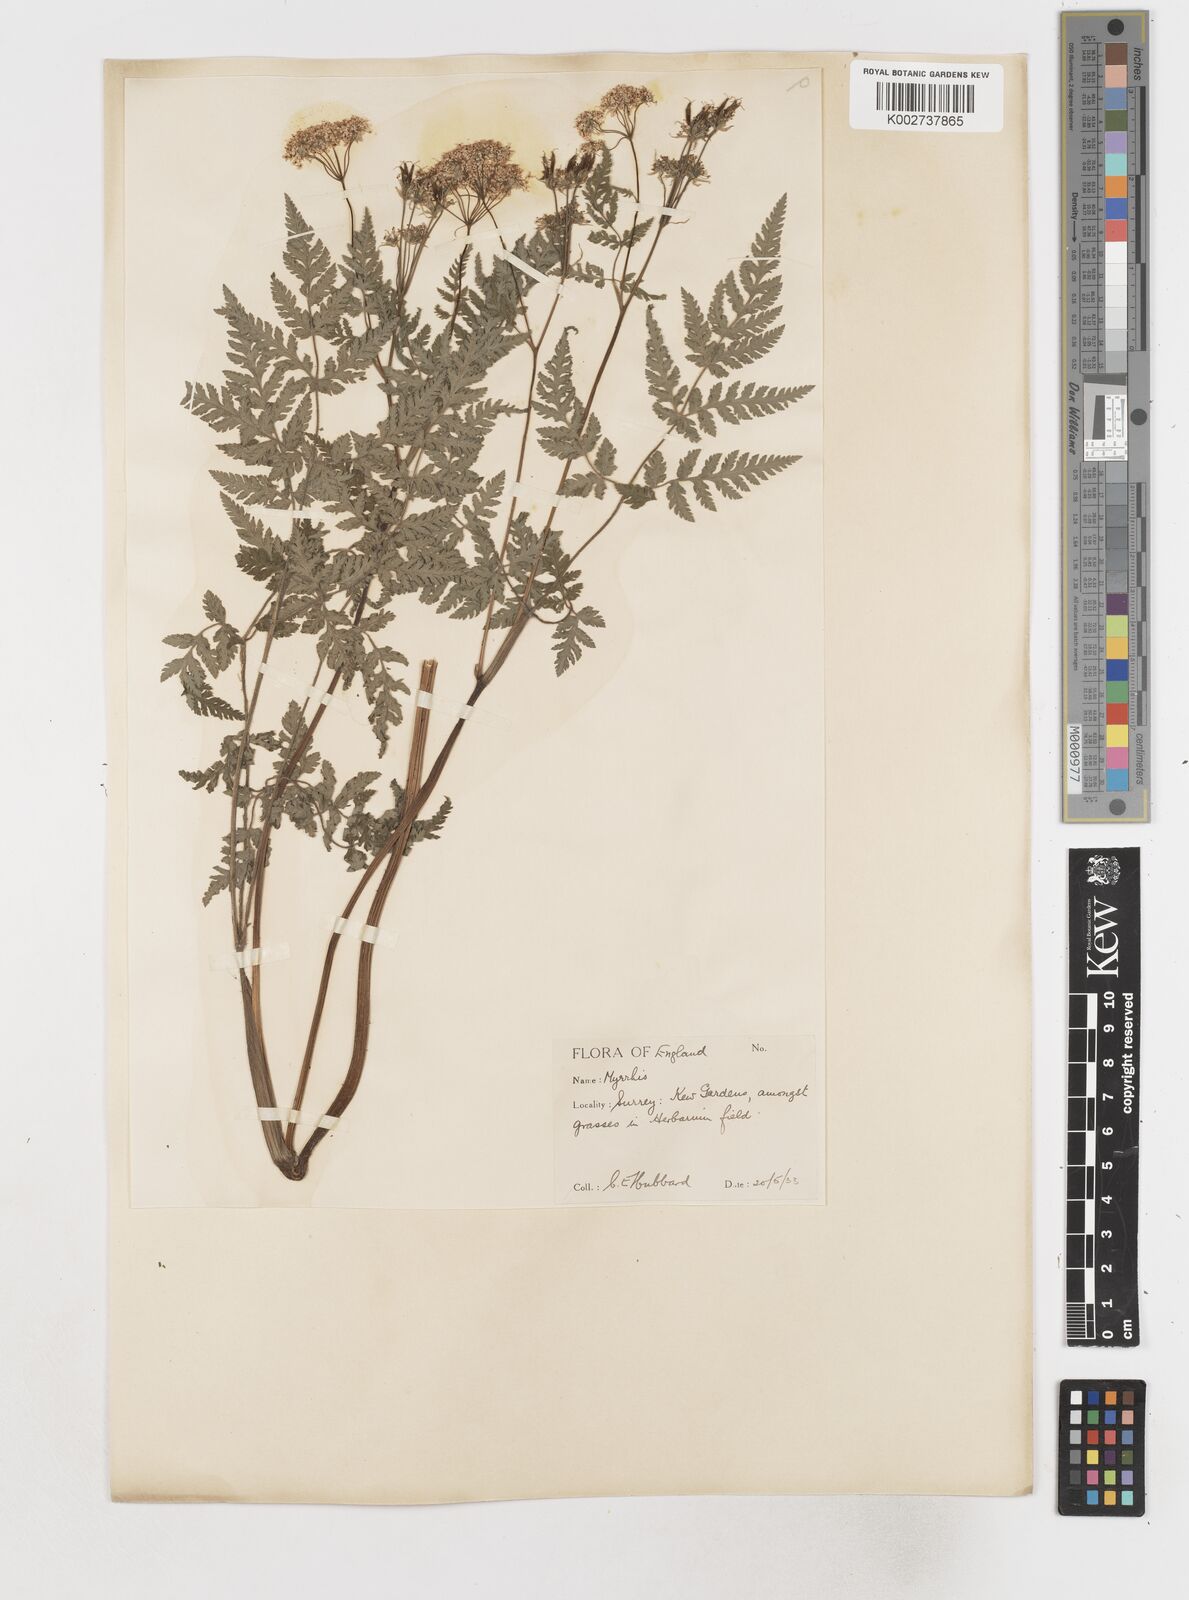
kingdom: Plantae
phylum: Tracheophyta
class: Magnoliopsida
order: Apiales
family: Apiaceae
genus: Myrrhis
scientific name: Myrrhis odorata
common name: Sweet cicely
